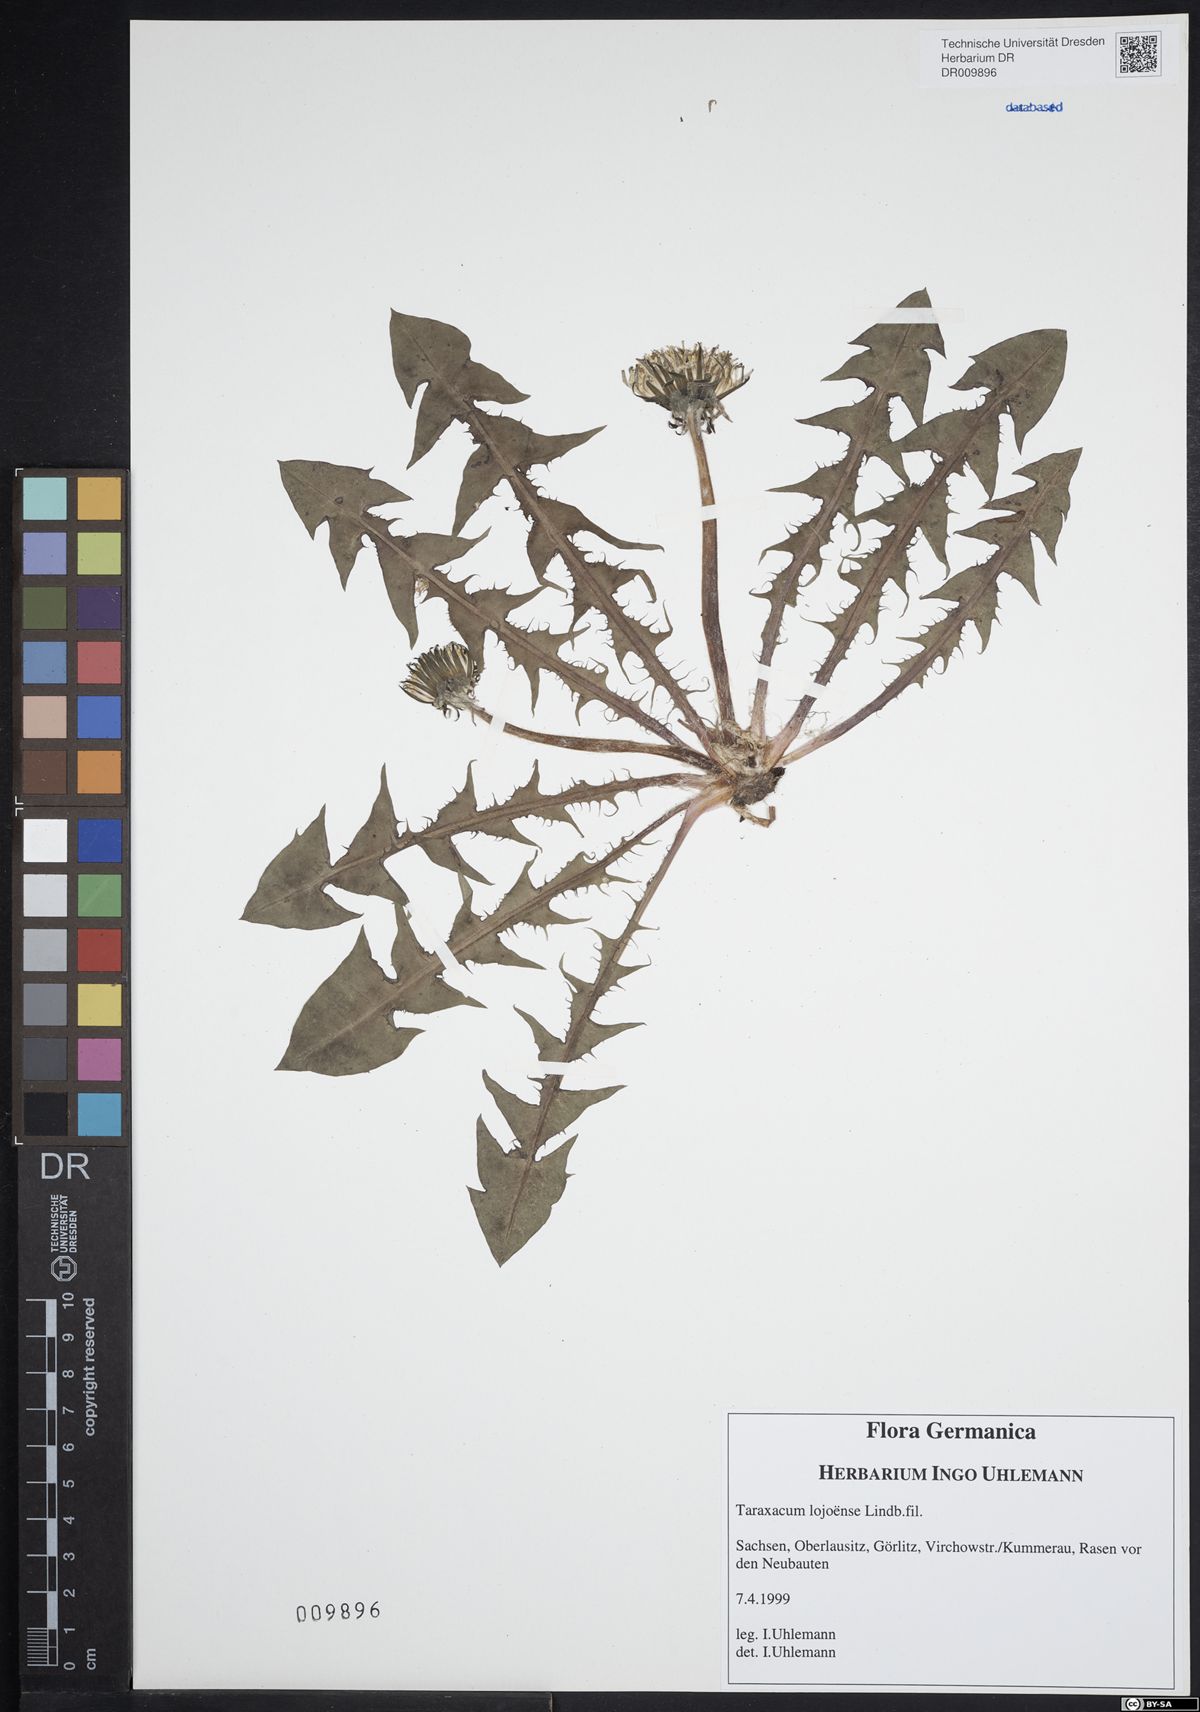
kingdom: Plantae
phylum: Tracheophyta
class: Magnoliopsida
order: Asterales
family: Asteraceae
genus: Taraxacum
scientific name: Taraxacum debrayi
